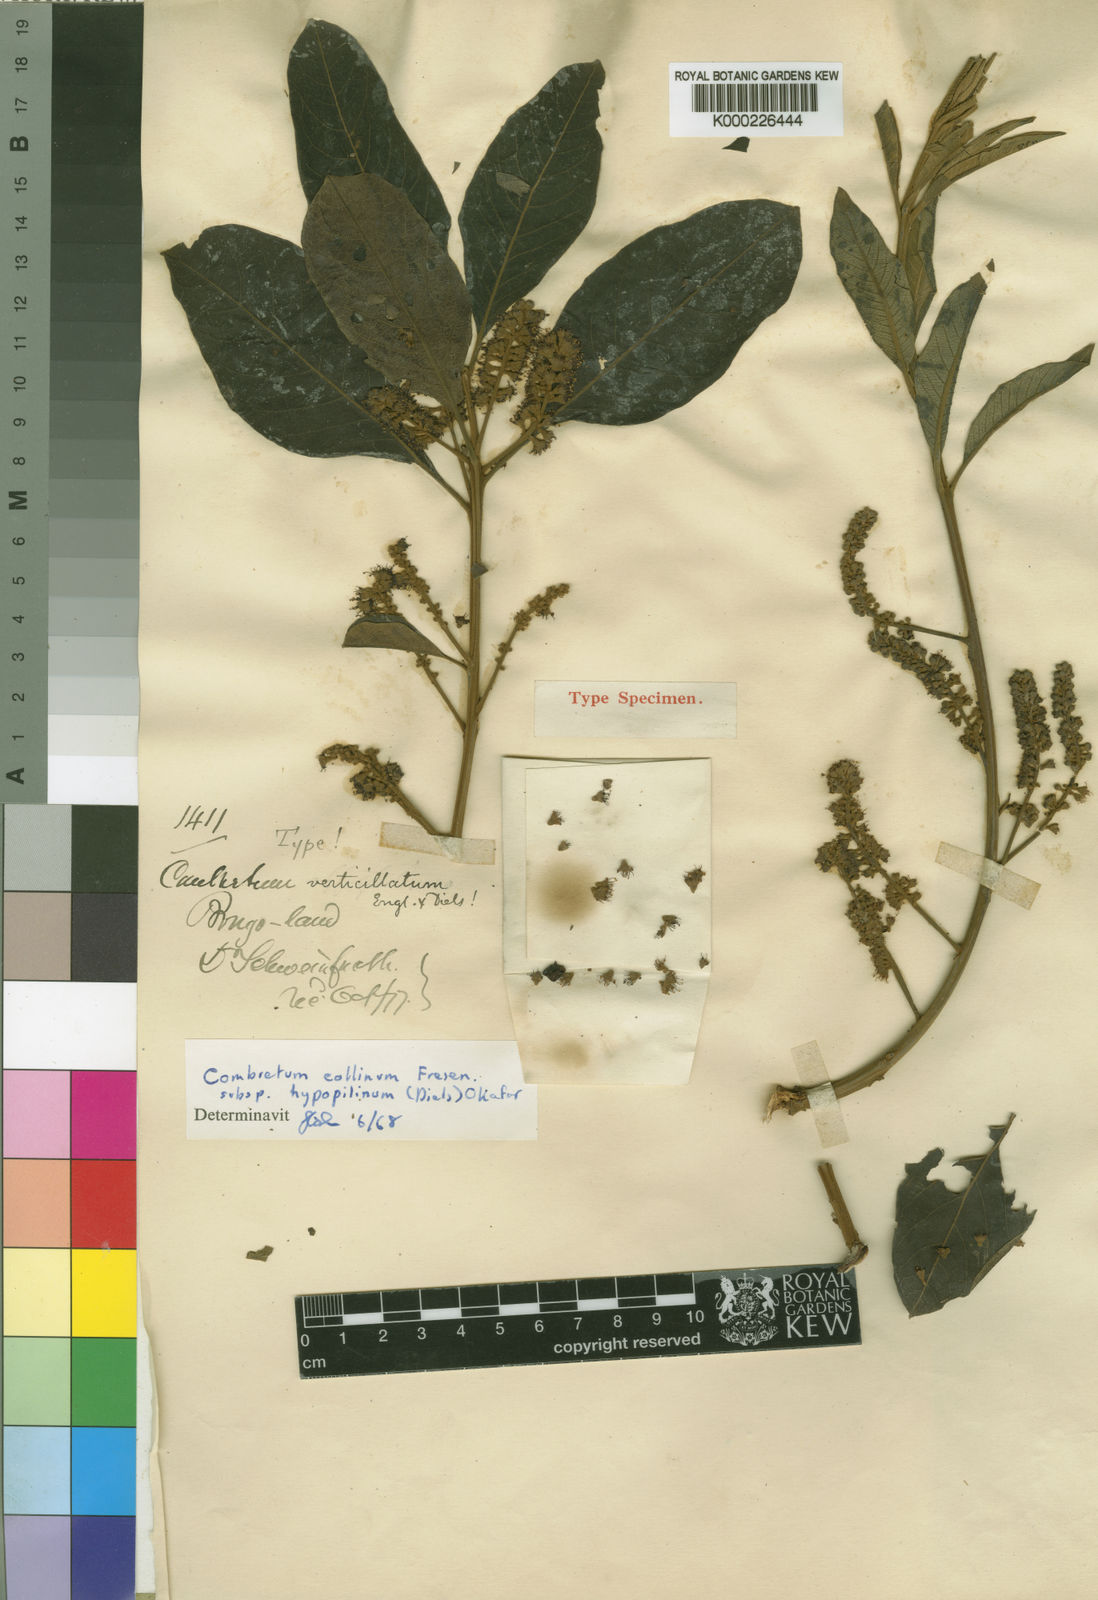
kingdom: Plantae
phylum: Tracheophyta
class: Magnoliopsida
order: Myrtales
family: Combretaceae
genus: Combretum
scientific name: Combretum collinum
